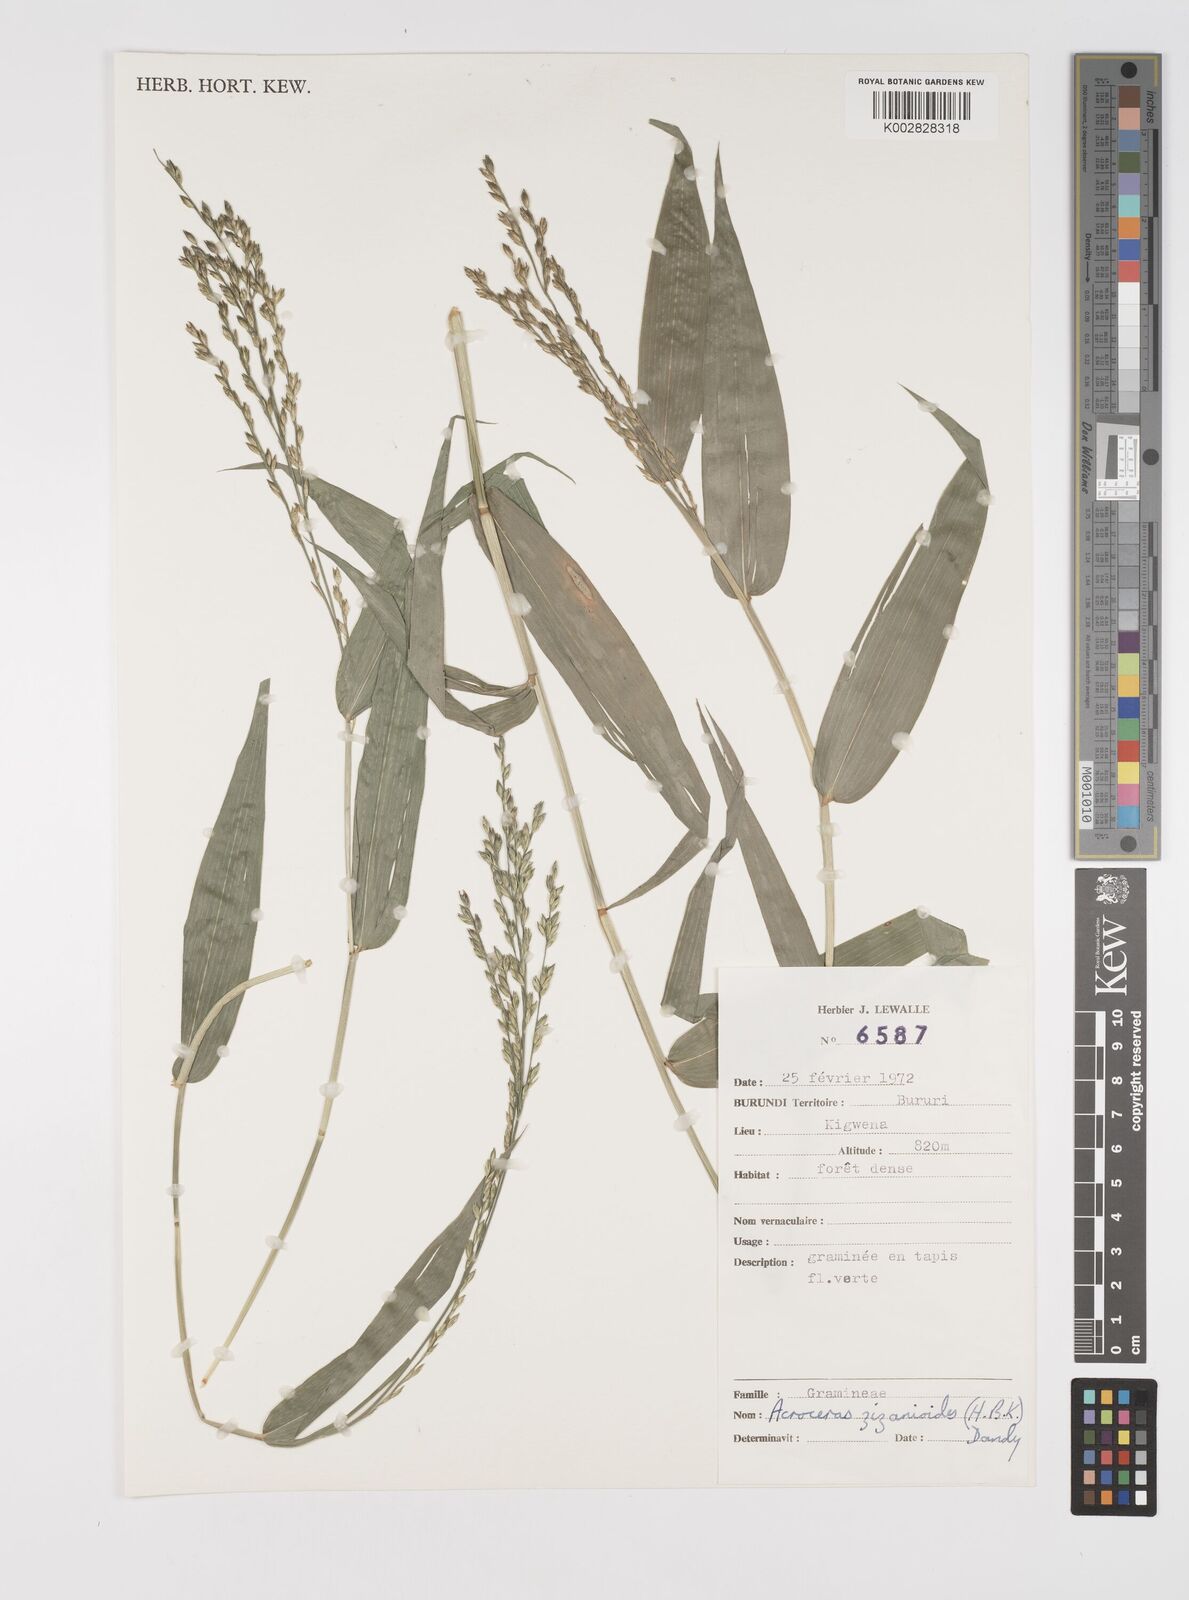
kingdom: Plantae
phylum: Tracheophyta
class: Liliopsida
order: Poales
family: Poaceae
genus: Acroceras
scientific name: Acroceras zizanioides
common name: Oat grass
